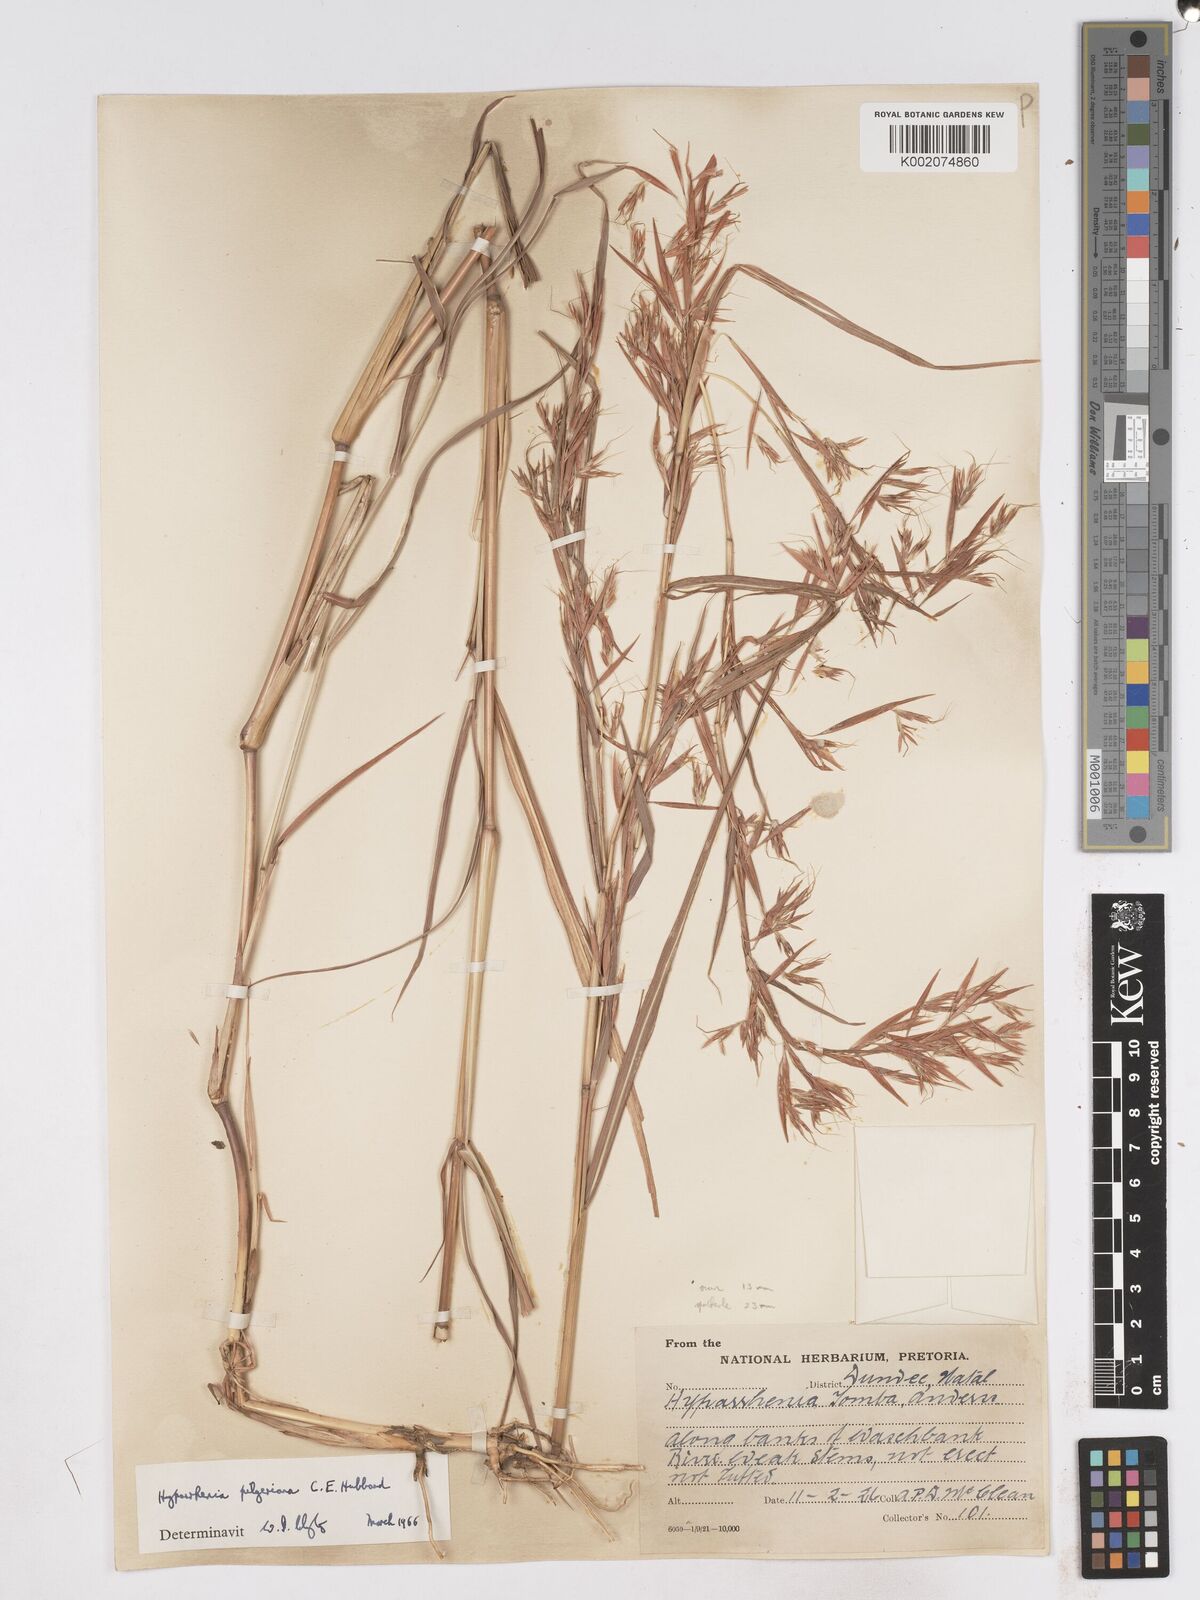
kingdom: Plantae
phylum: Tracheophyta
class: Liliopsida
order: Poales
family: Poaceae
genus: Hyparrhenia
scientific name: Hyparrhenia pilgeriana
